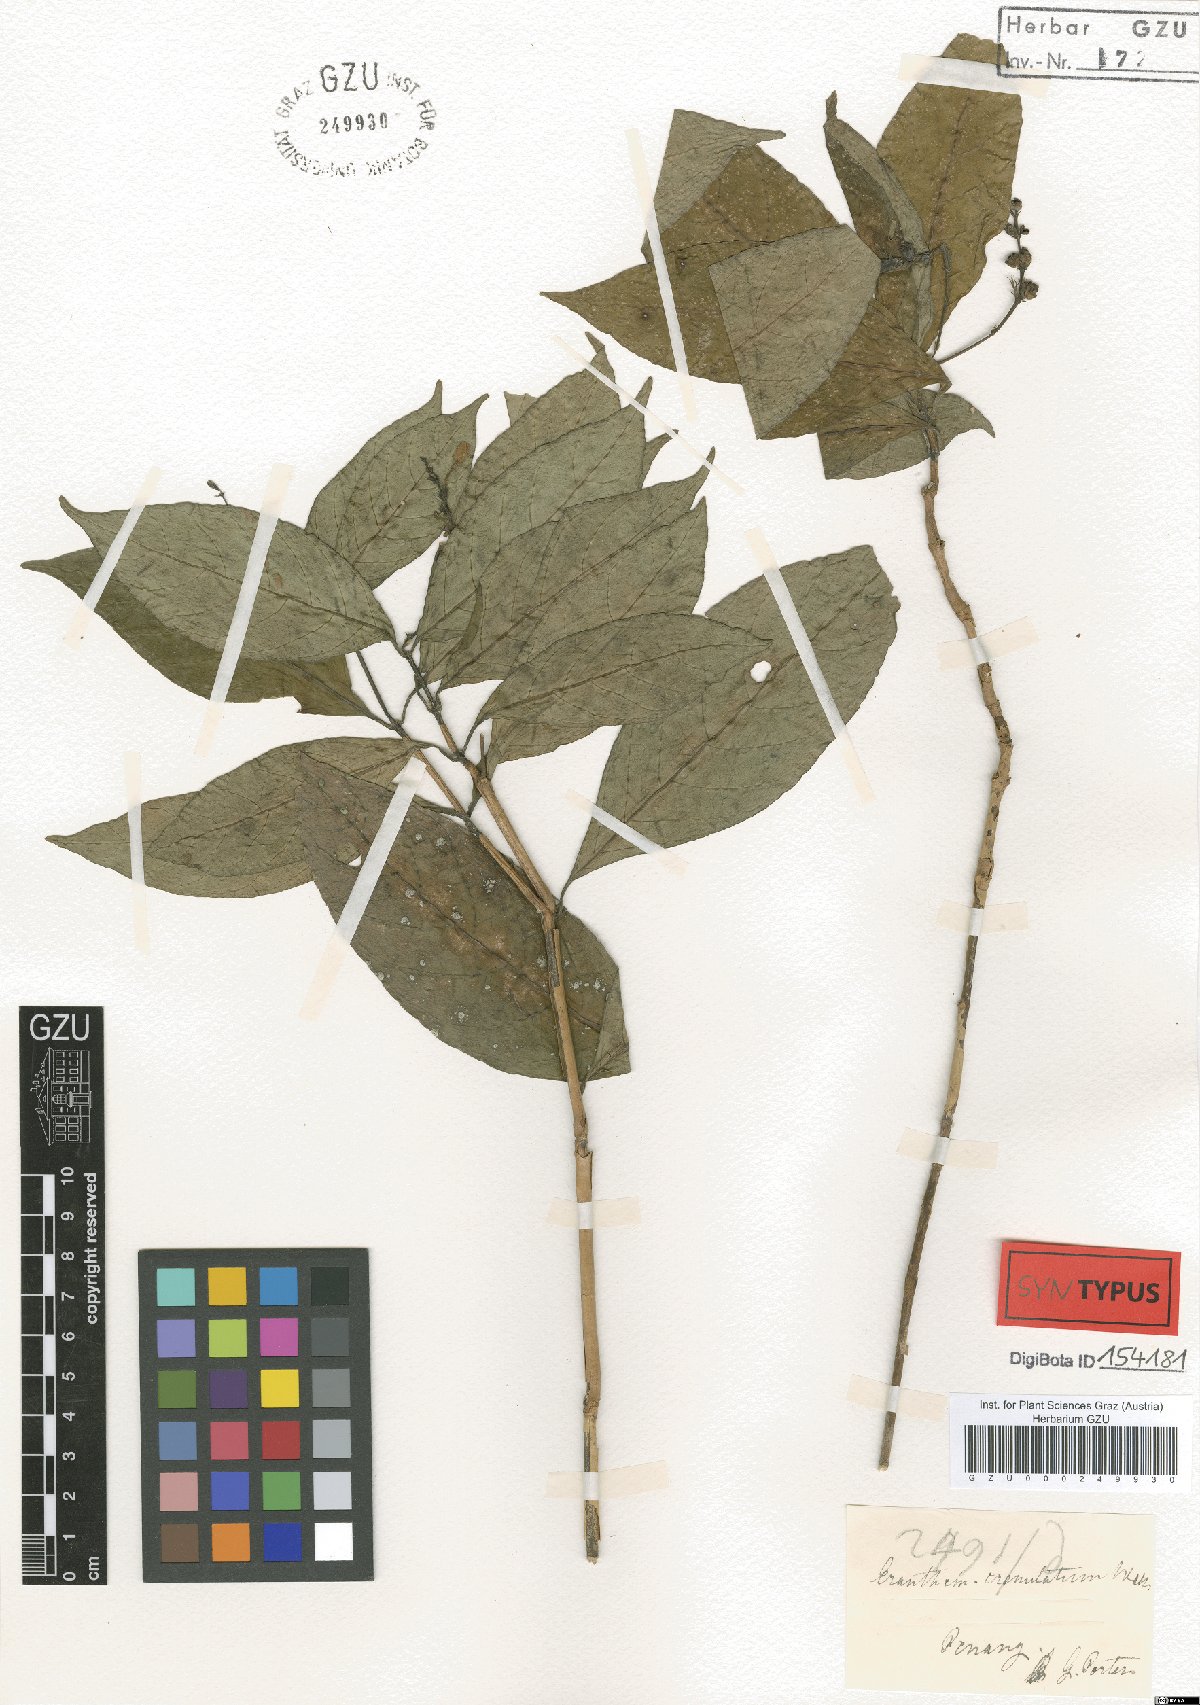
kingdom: Plantae
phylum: Tracheophyta
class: Magnoliopsida
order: Lamiales
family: Acanthaceae
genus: Pseuderanthemum
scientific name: Pseuderanthemum crenulatum
